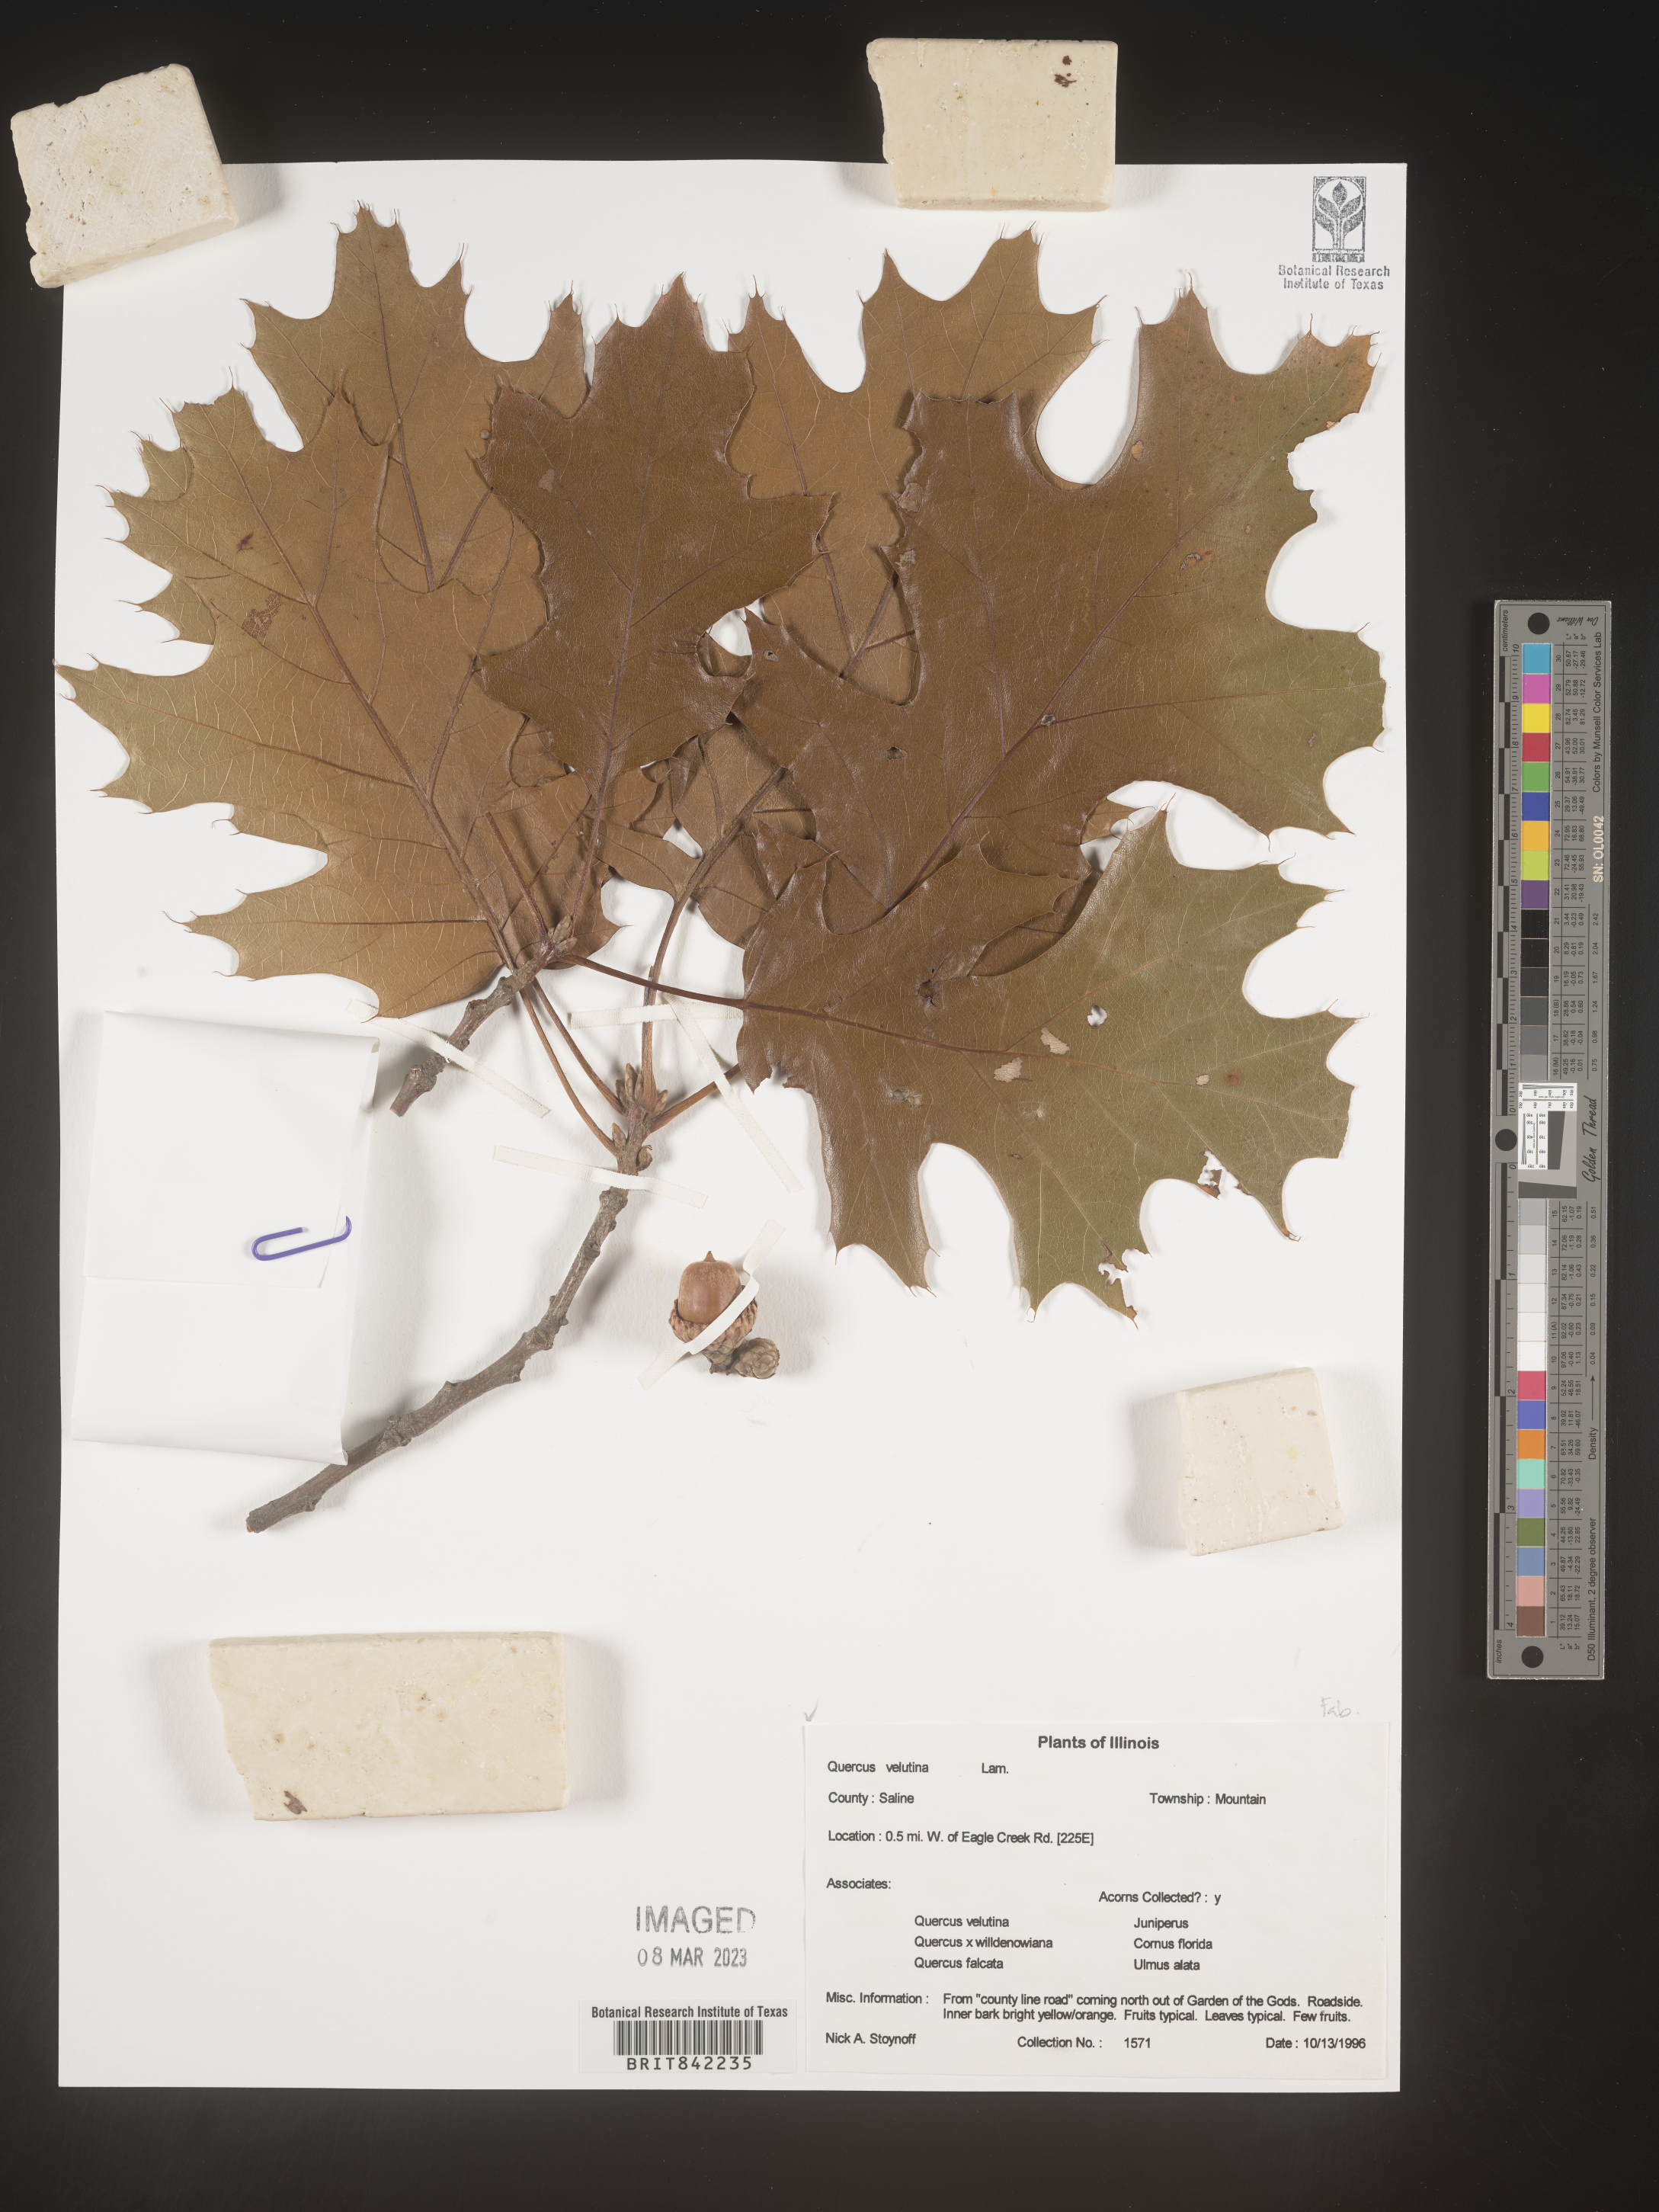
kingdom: Plantae
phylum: Tracheophyta
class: Magnoliopsida
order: Fagales
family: Fagaceae
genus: Quercus
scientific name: Quercus velutina
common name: Black oak
